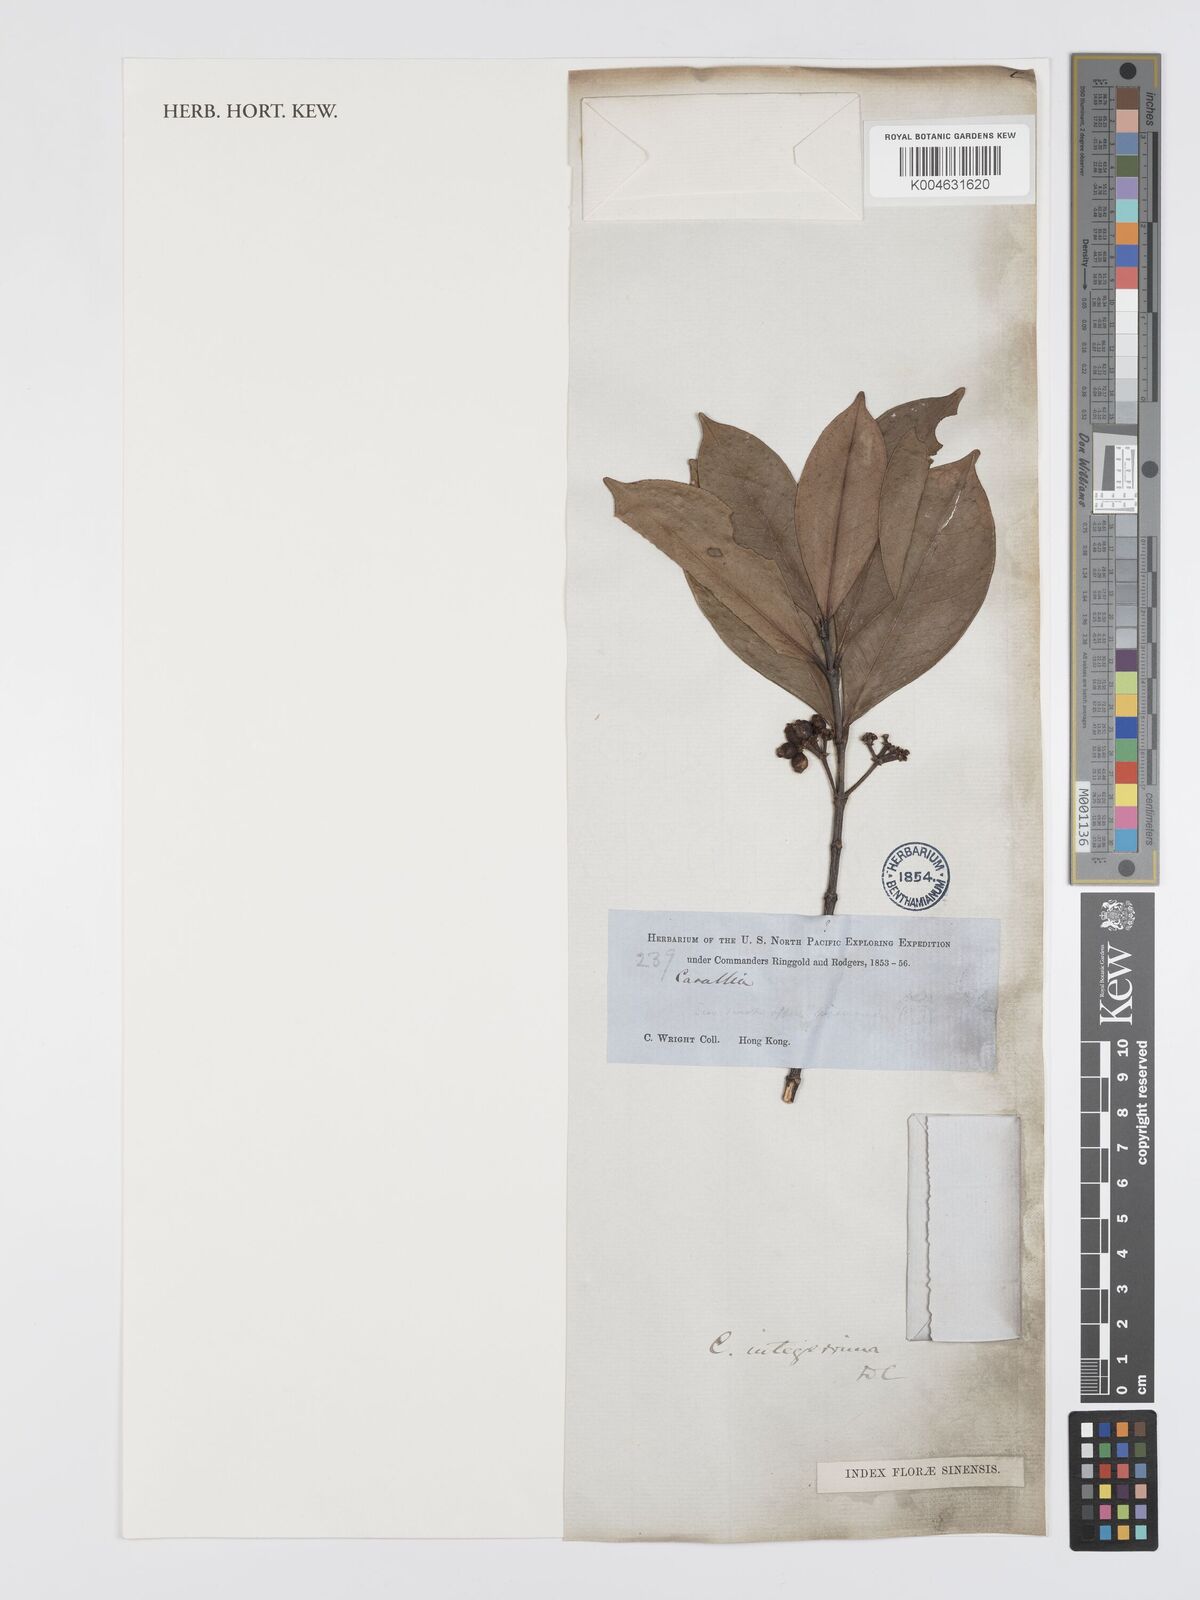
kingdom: Plantae
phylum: Tracheophyta
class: Magnoliopsida
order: Malpighiales
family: Rhizophoraceae
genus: Carallia
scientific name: Carallia brachiata
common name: Carallawood
